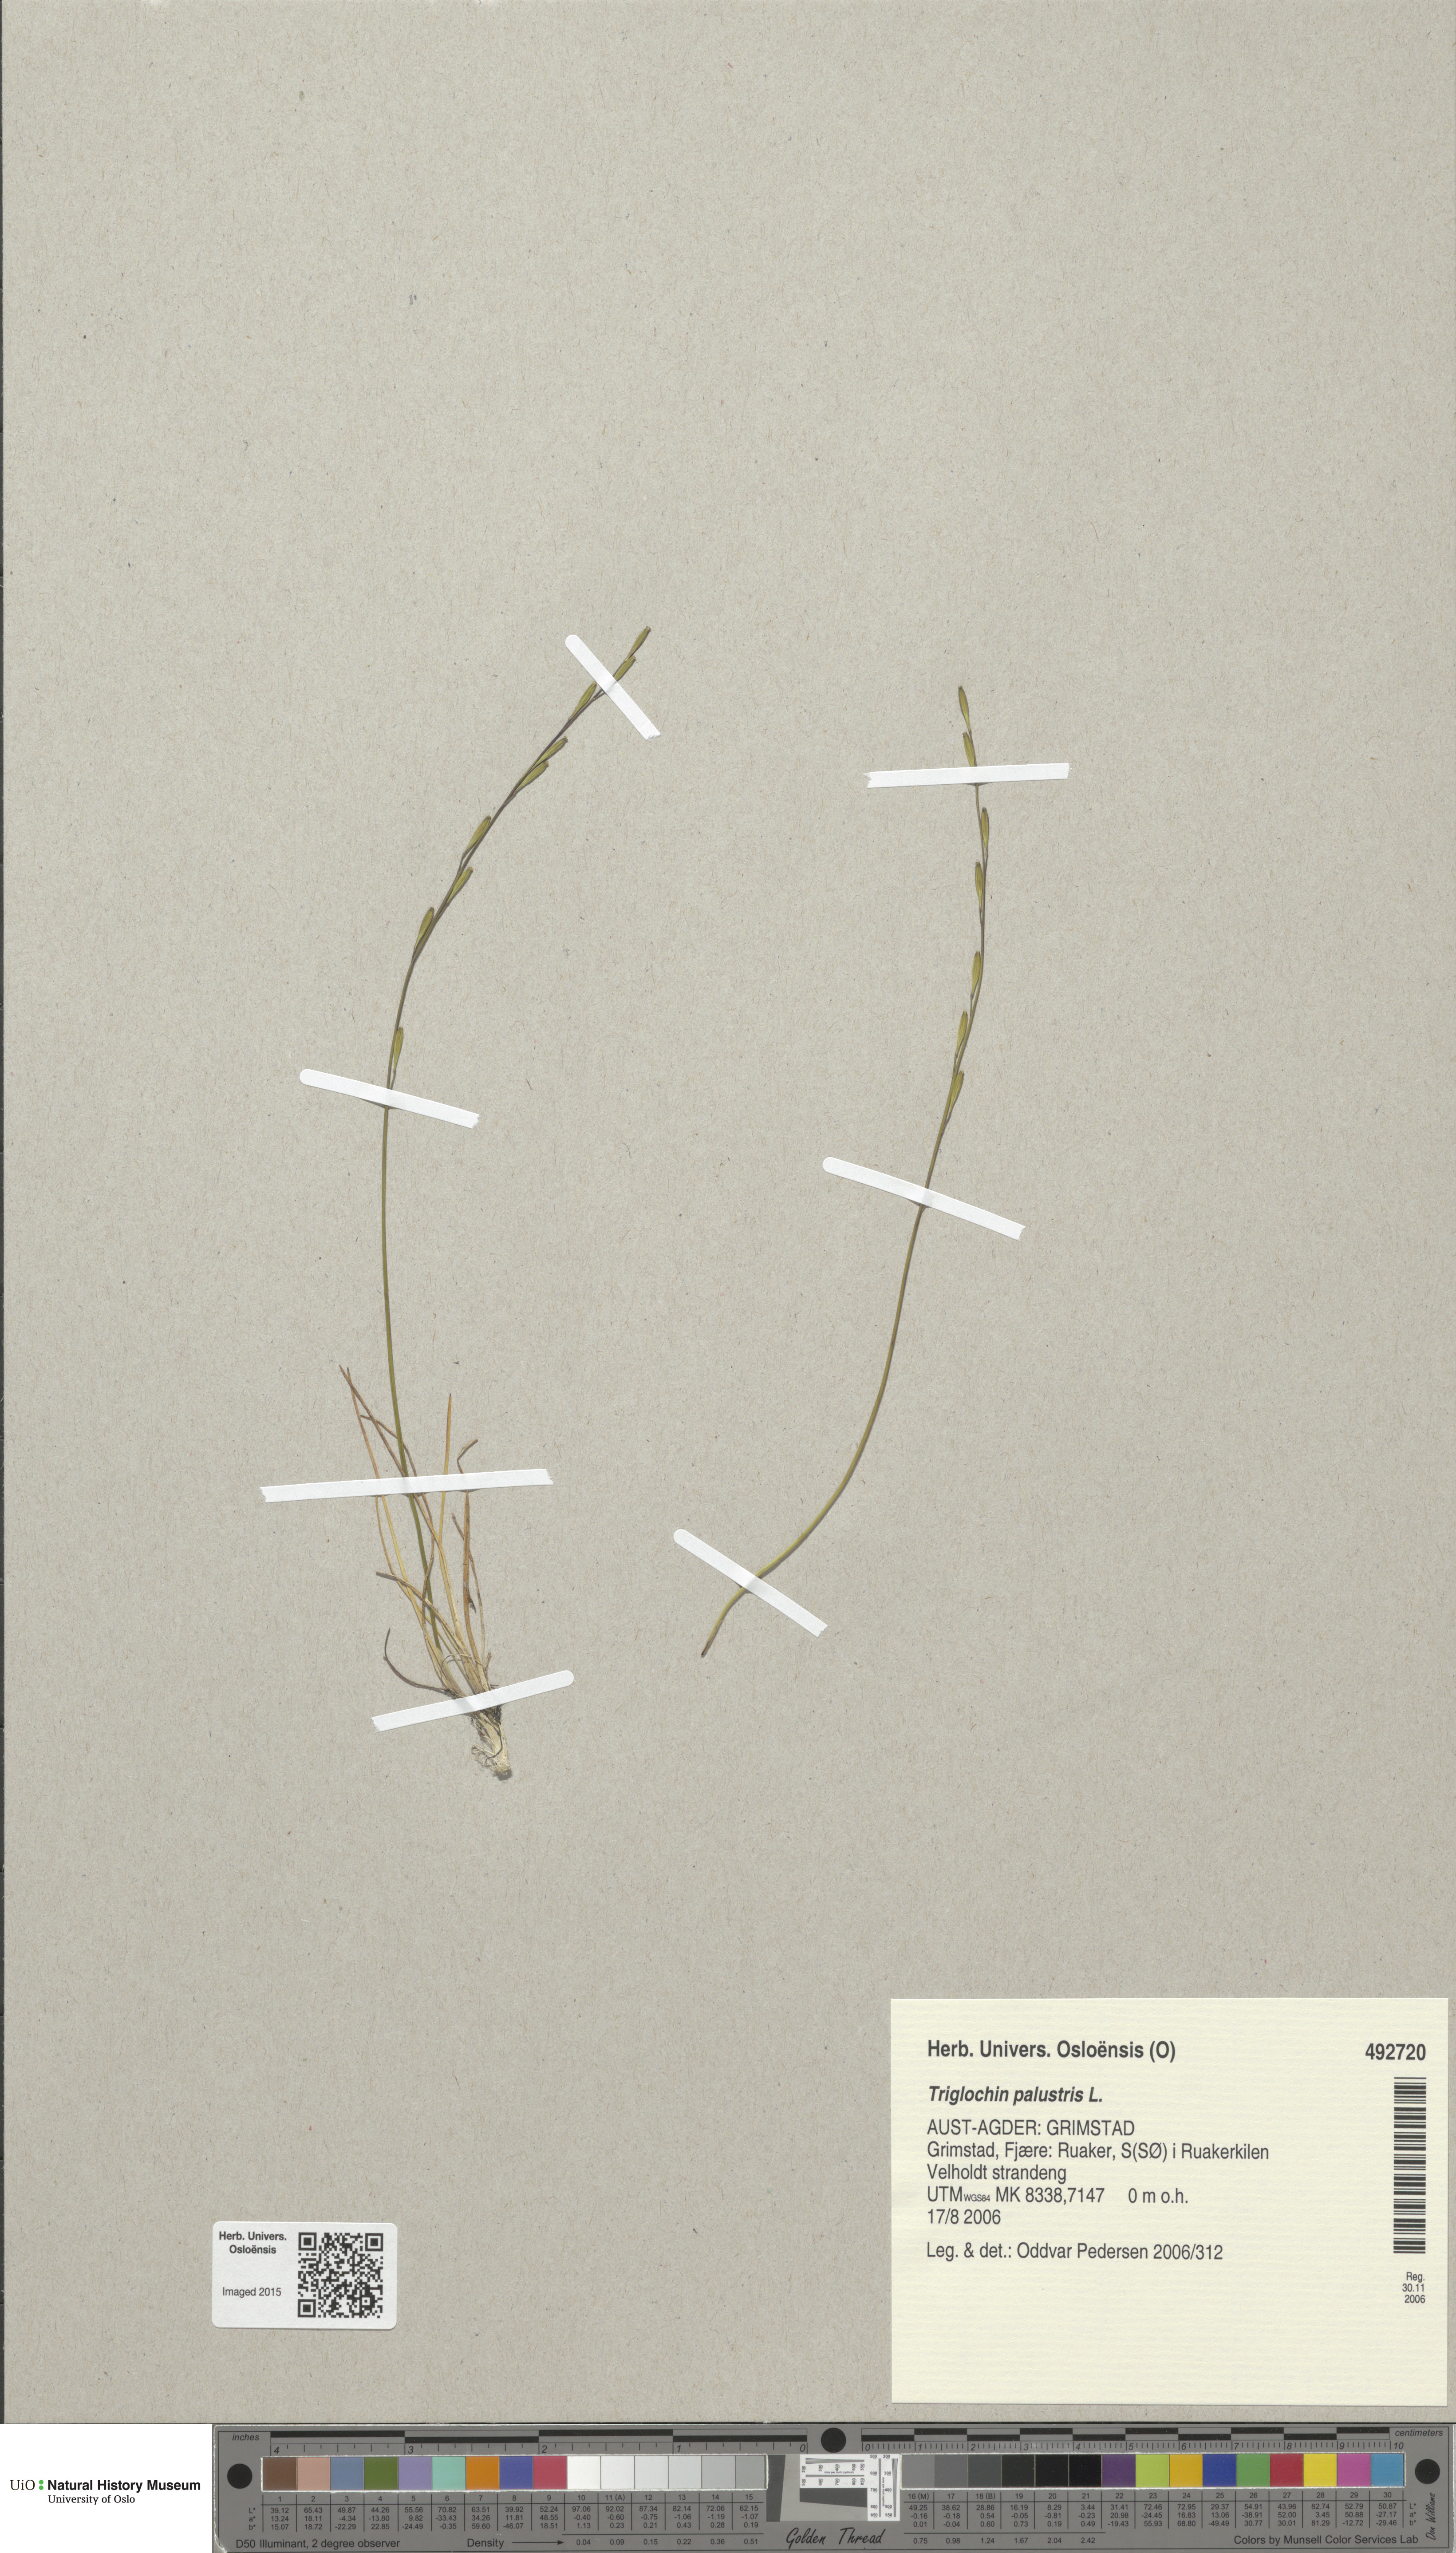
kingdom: Plantae
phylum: Tracheophyta
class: Liliopsida
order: Alismatales
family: Juncaginaceae
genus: Triglochin
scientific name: Triglochin palustris
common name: Marsh arrowgrass
